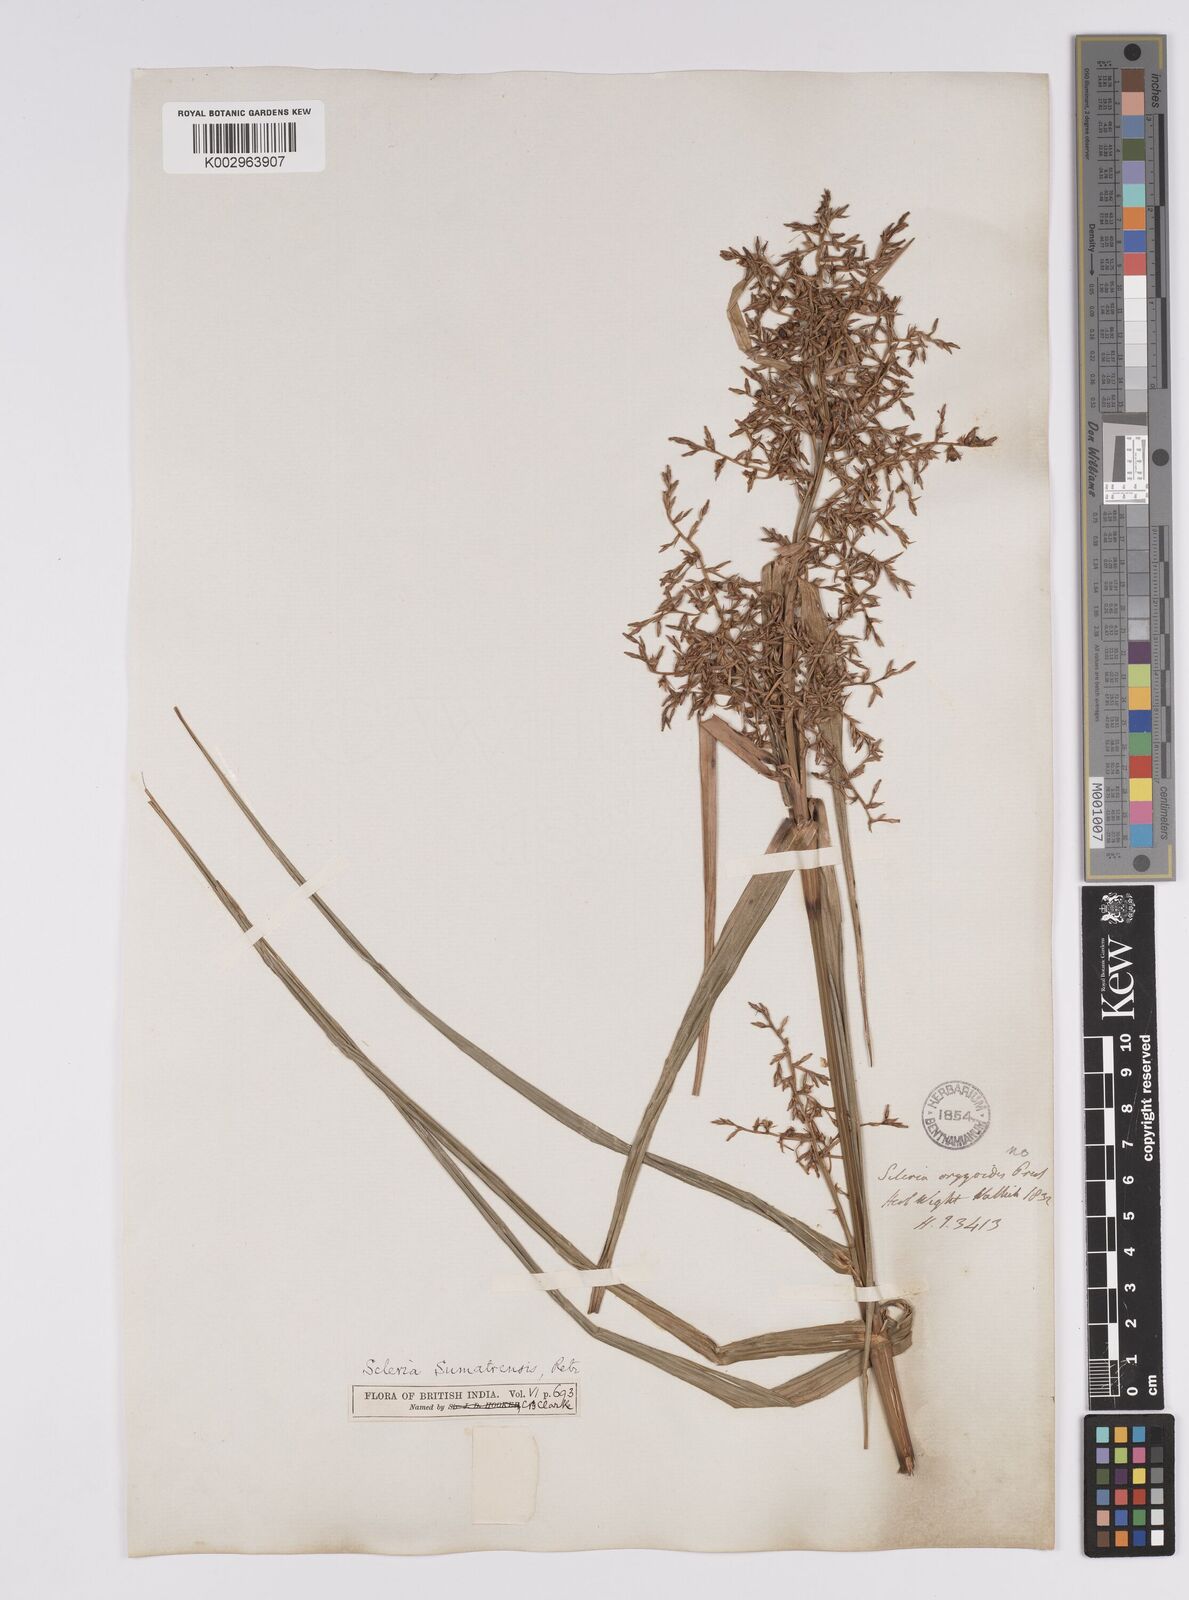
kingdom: Plantae
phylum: Tracheophyta
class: Liliopsida
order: Poales
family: Cyperaceae
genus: Scleria
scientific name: Scleria sumatrensis
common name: Sumatran scleria
